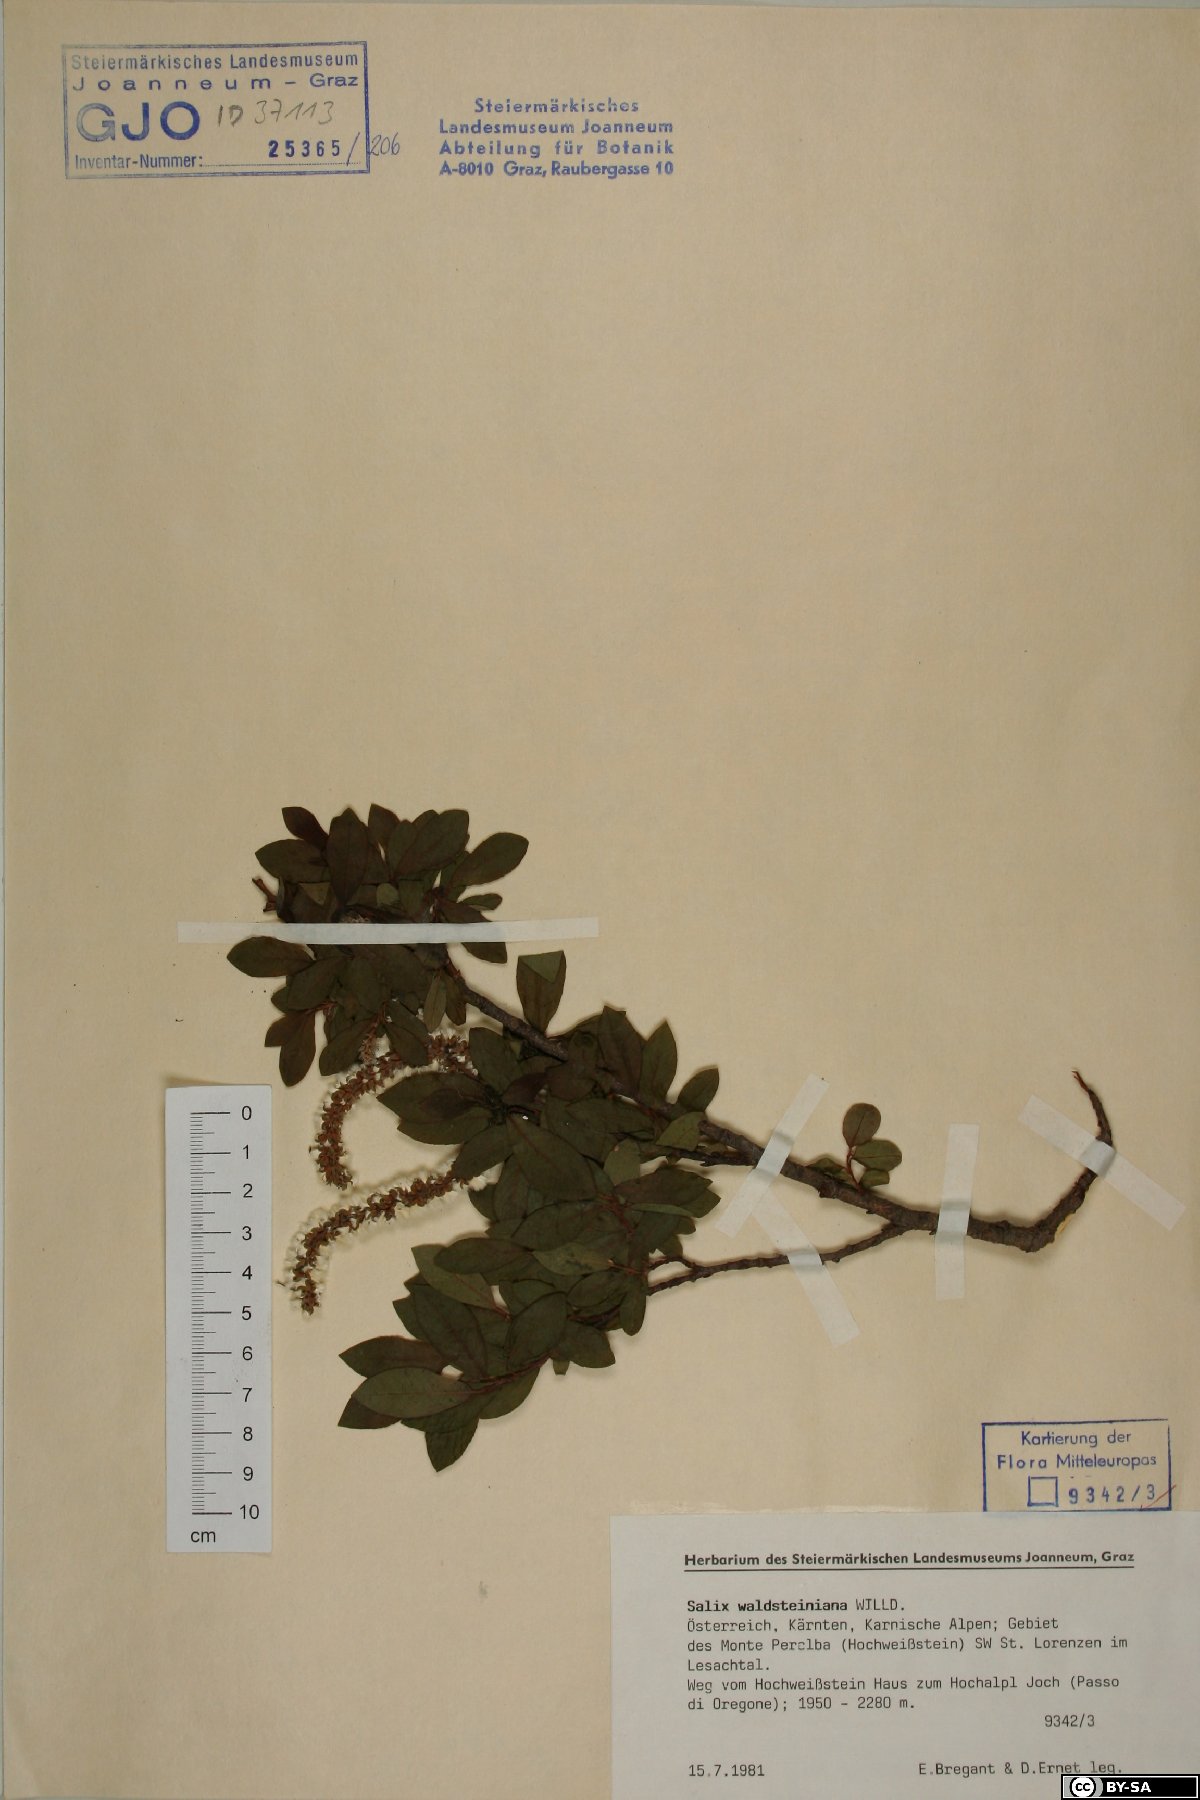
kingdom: Plantae
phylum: Tracheophyta
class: Magnoliopsida
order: Malpighiales
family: Salicaceae
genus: Salix
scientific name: Salix waldsteiniana
